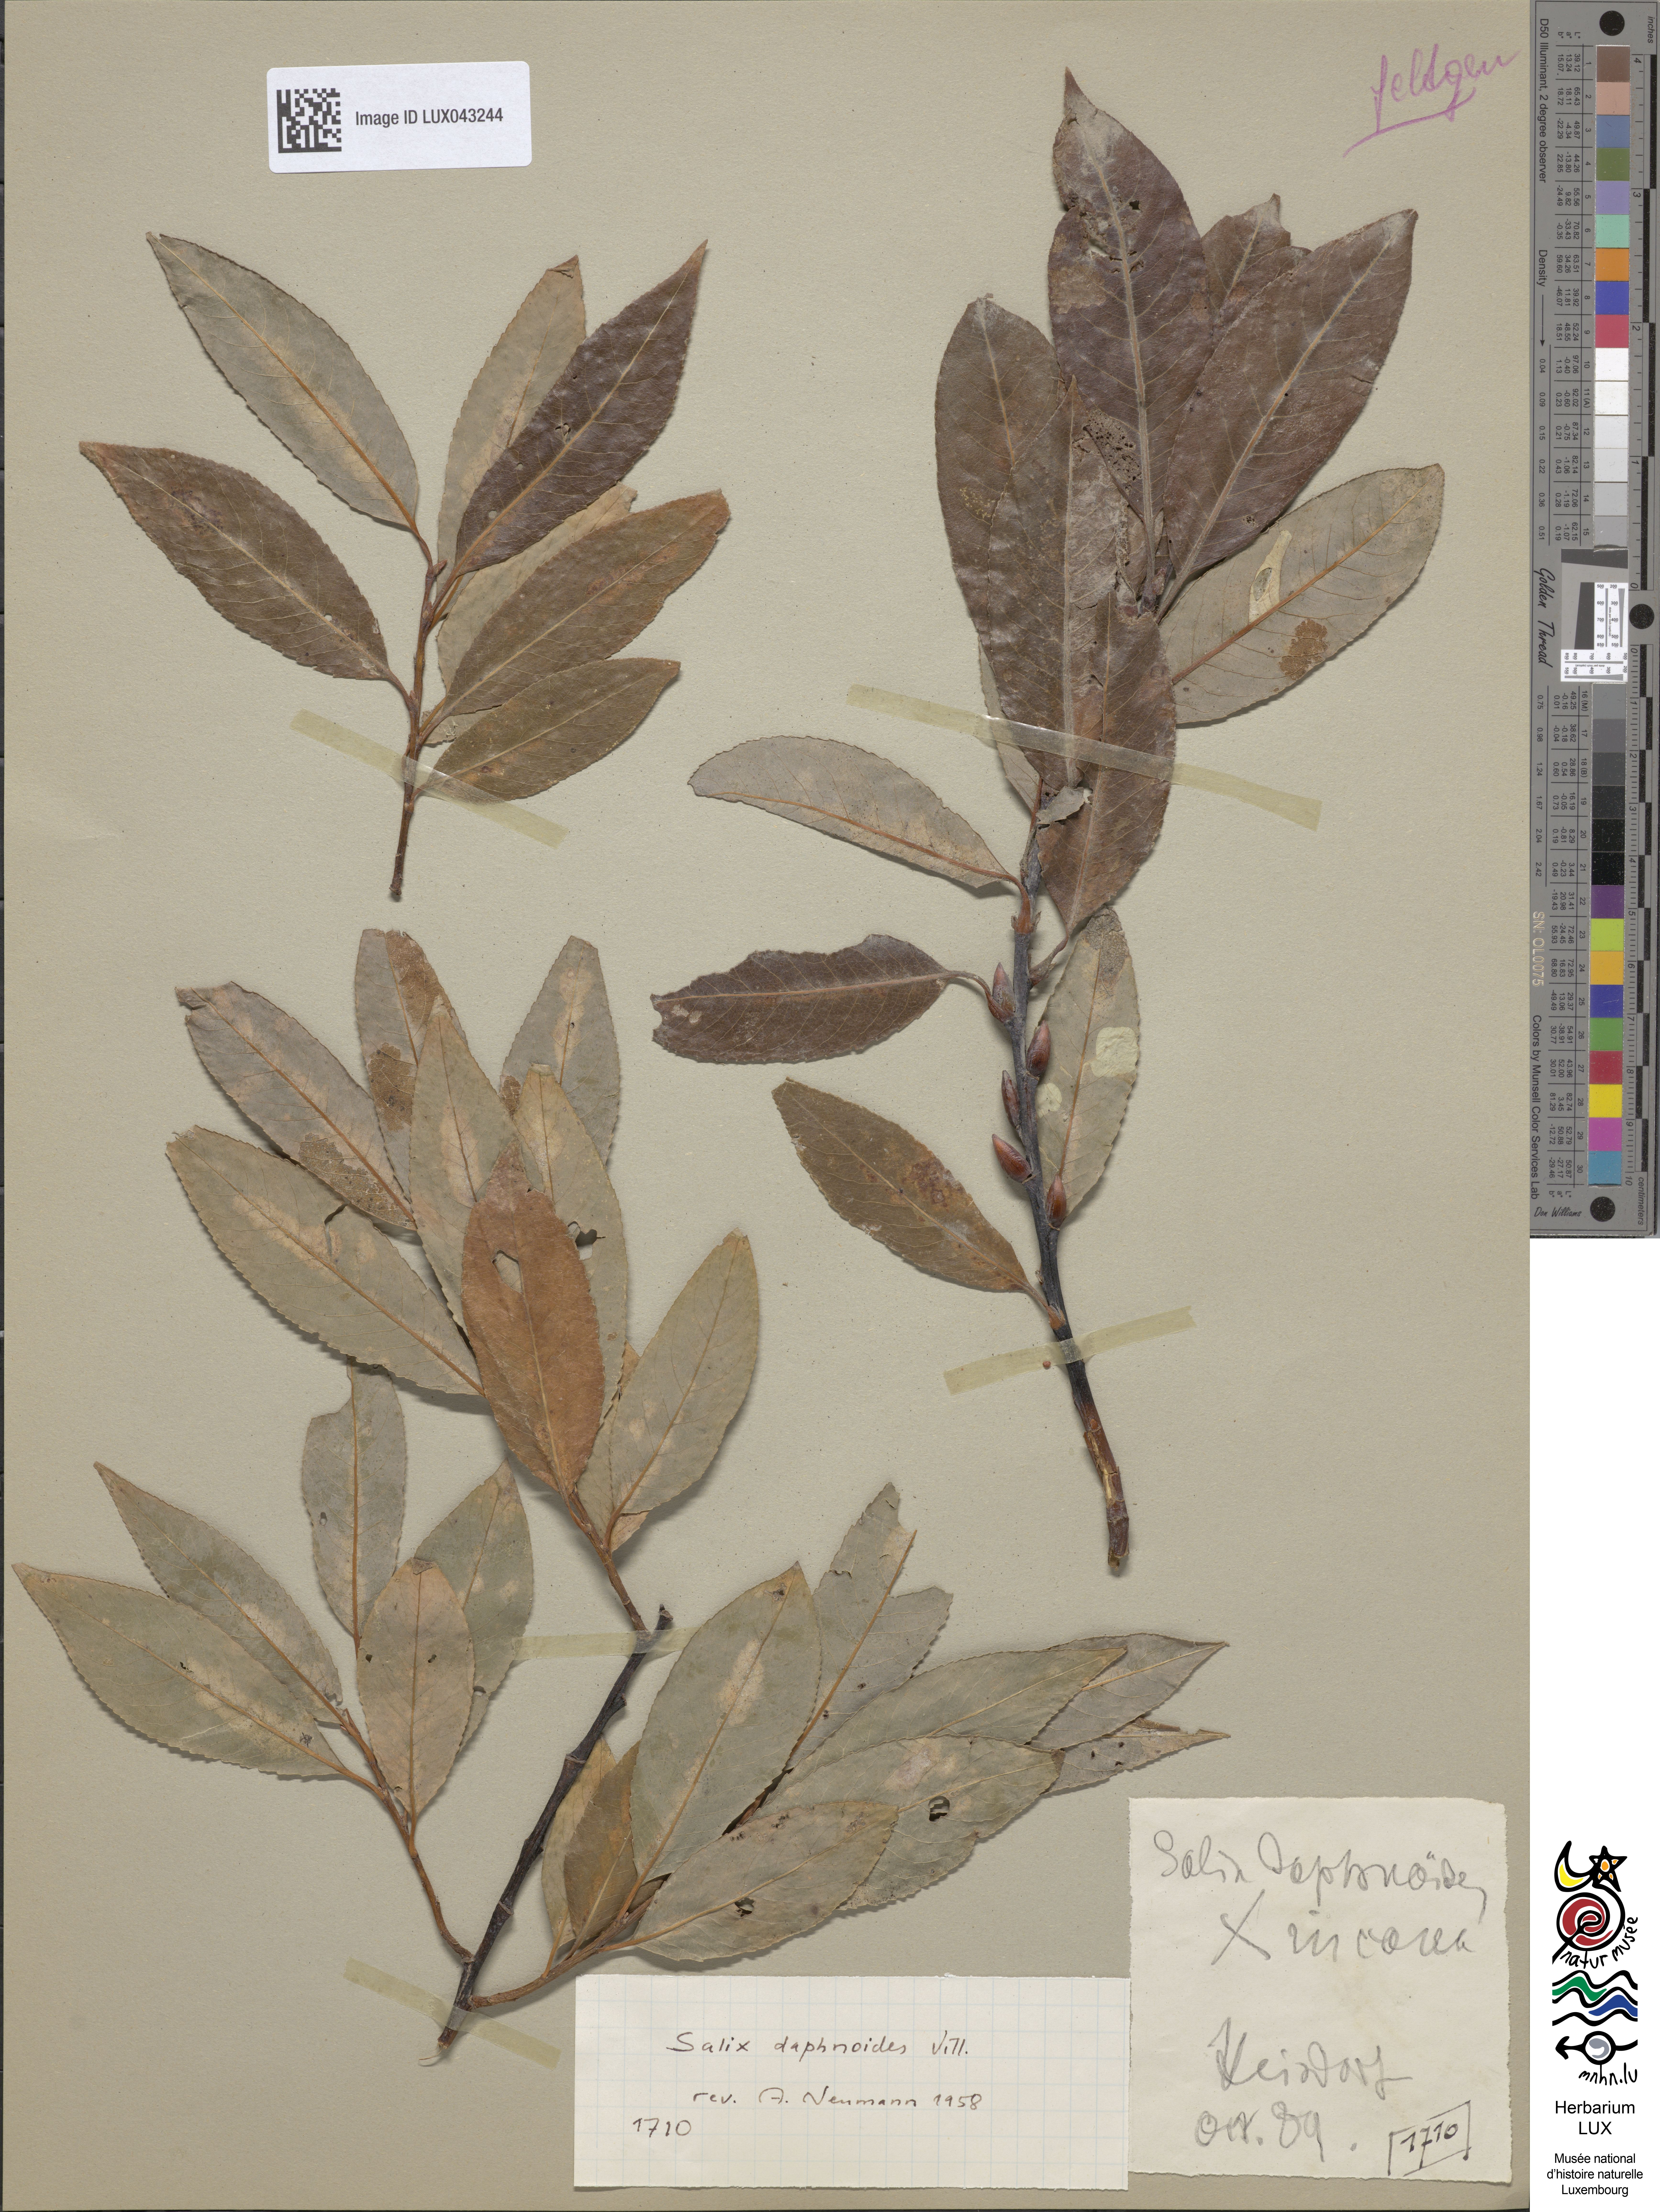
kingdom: Plantae
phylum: Tracheophyta
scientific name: Tracheophyta
